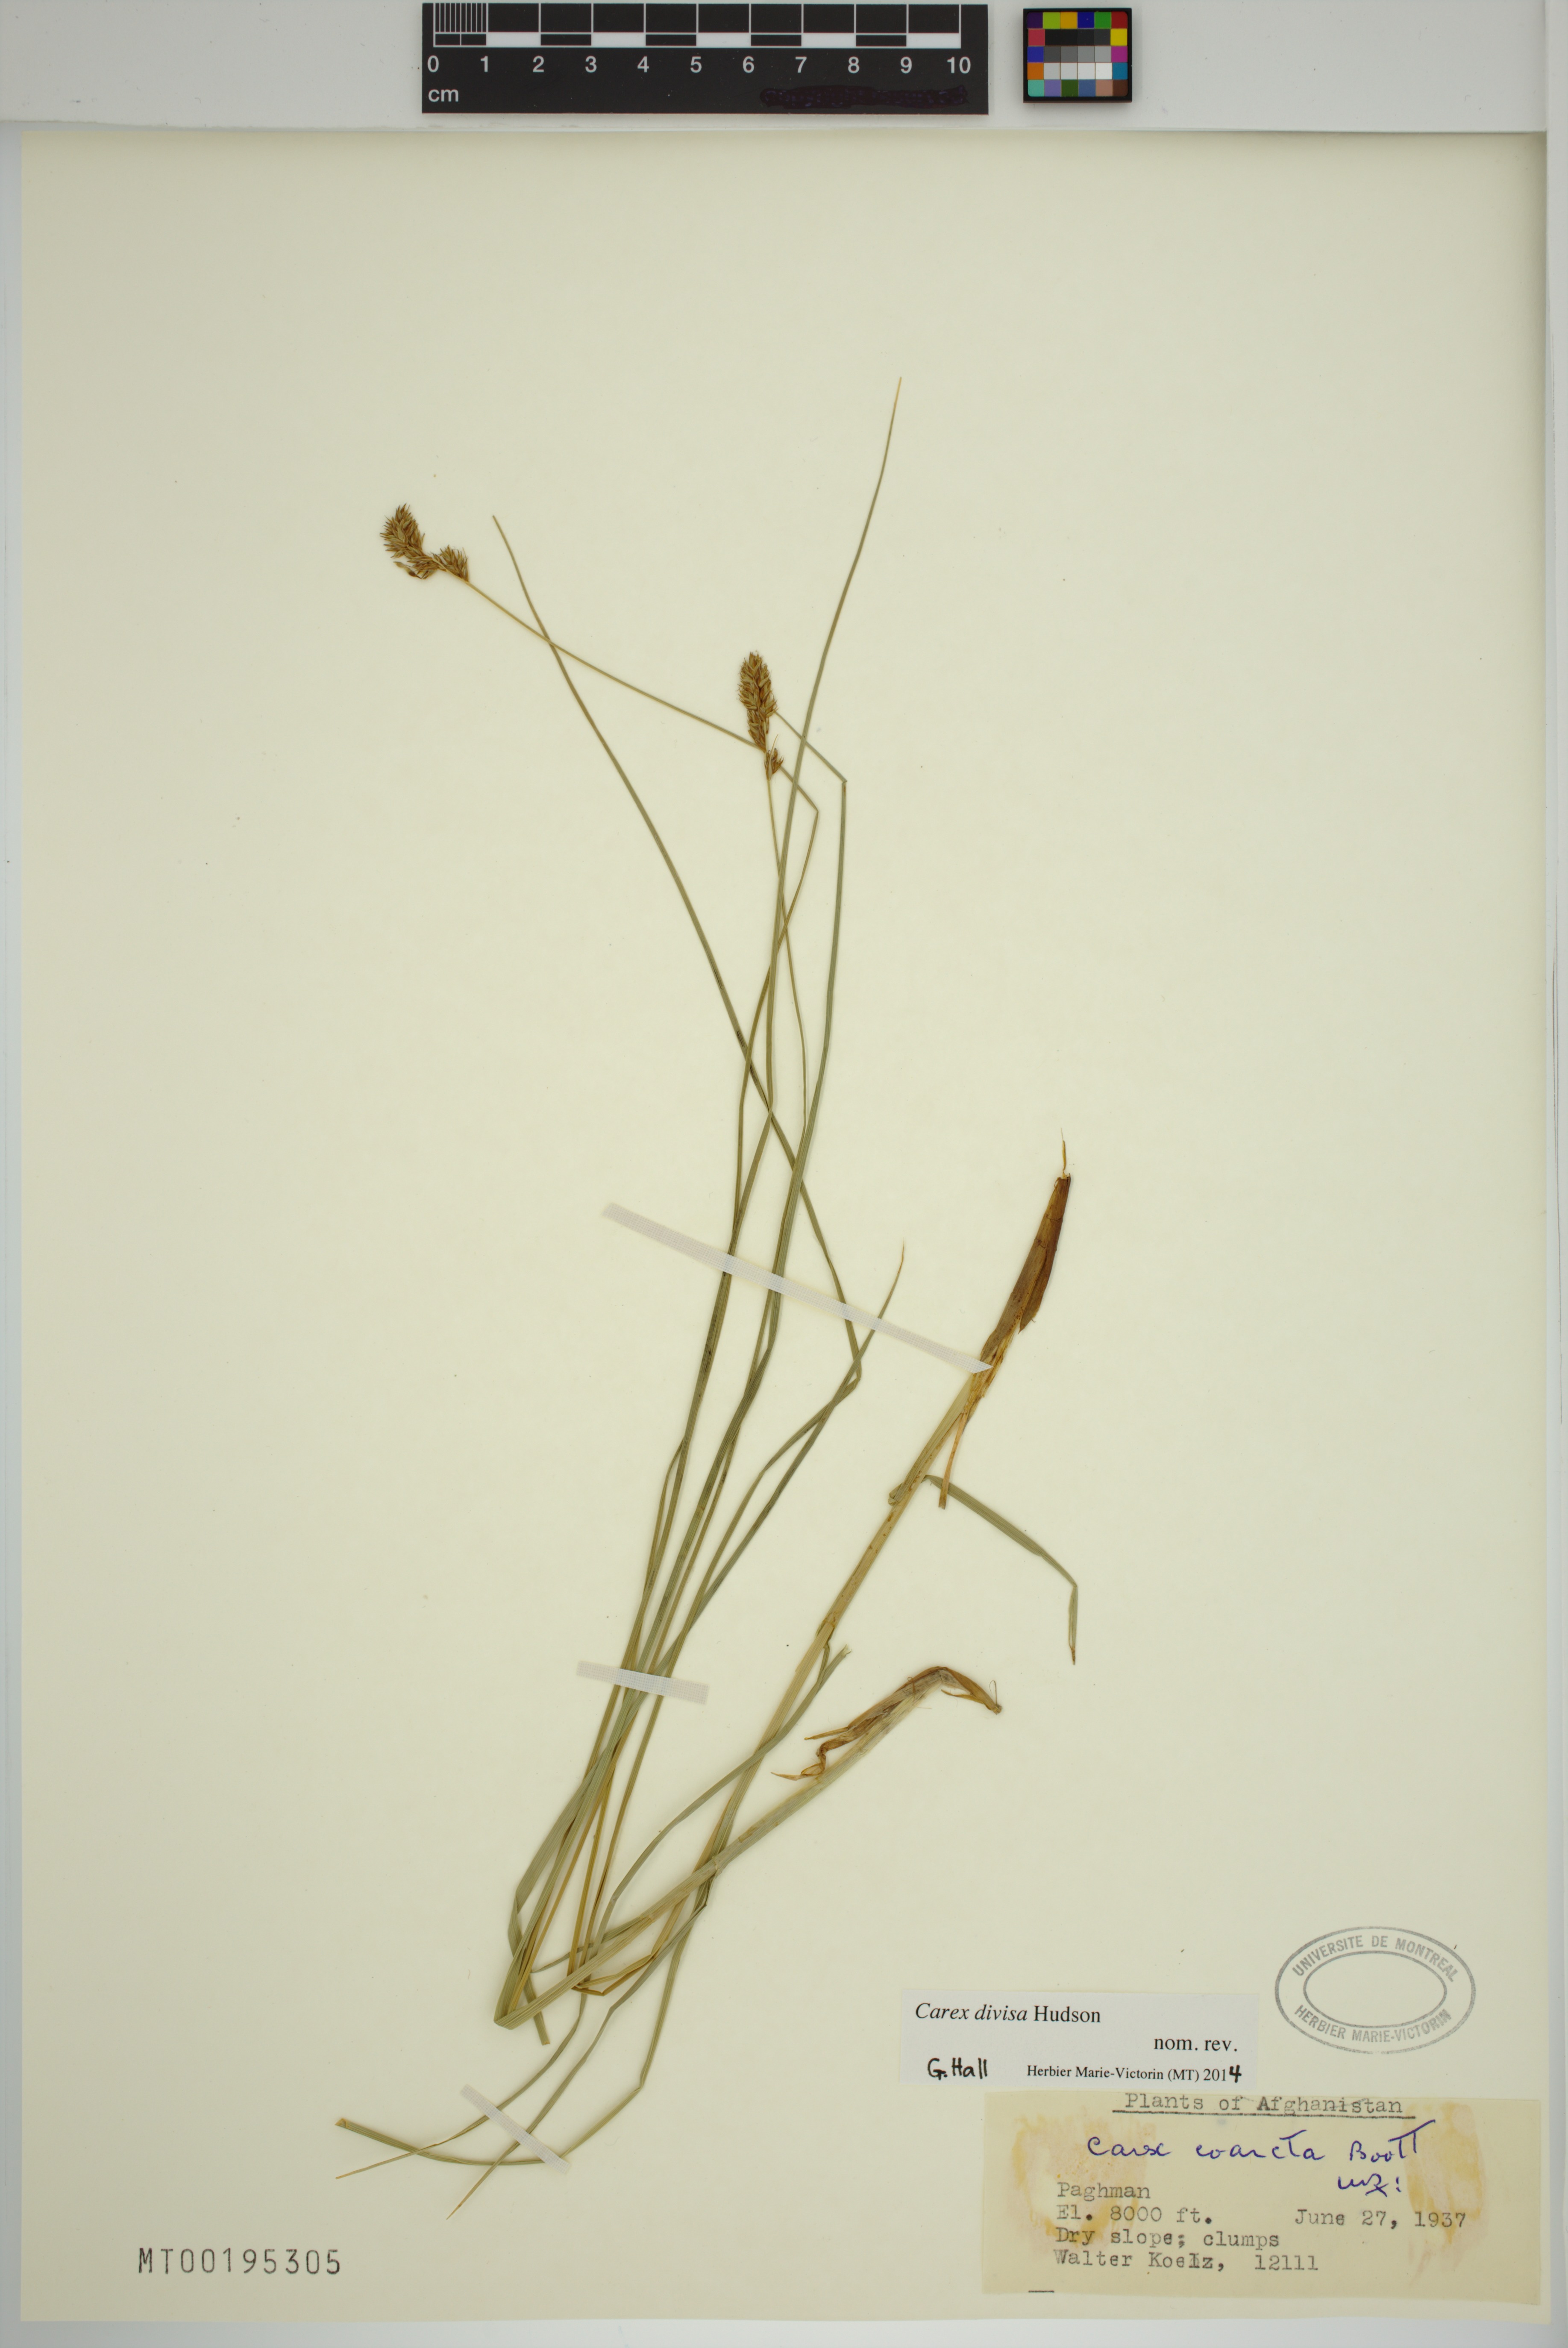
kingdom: Plantae
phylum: Tracheophyta
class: Liliopsida
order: Poales
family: Cyperaceae
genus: Carex
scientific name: Carex divisa
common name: Divided sedge
